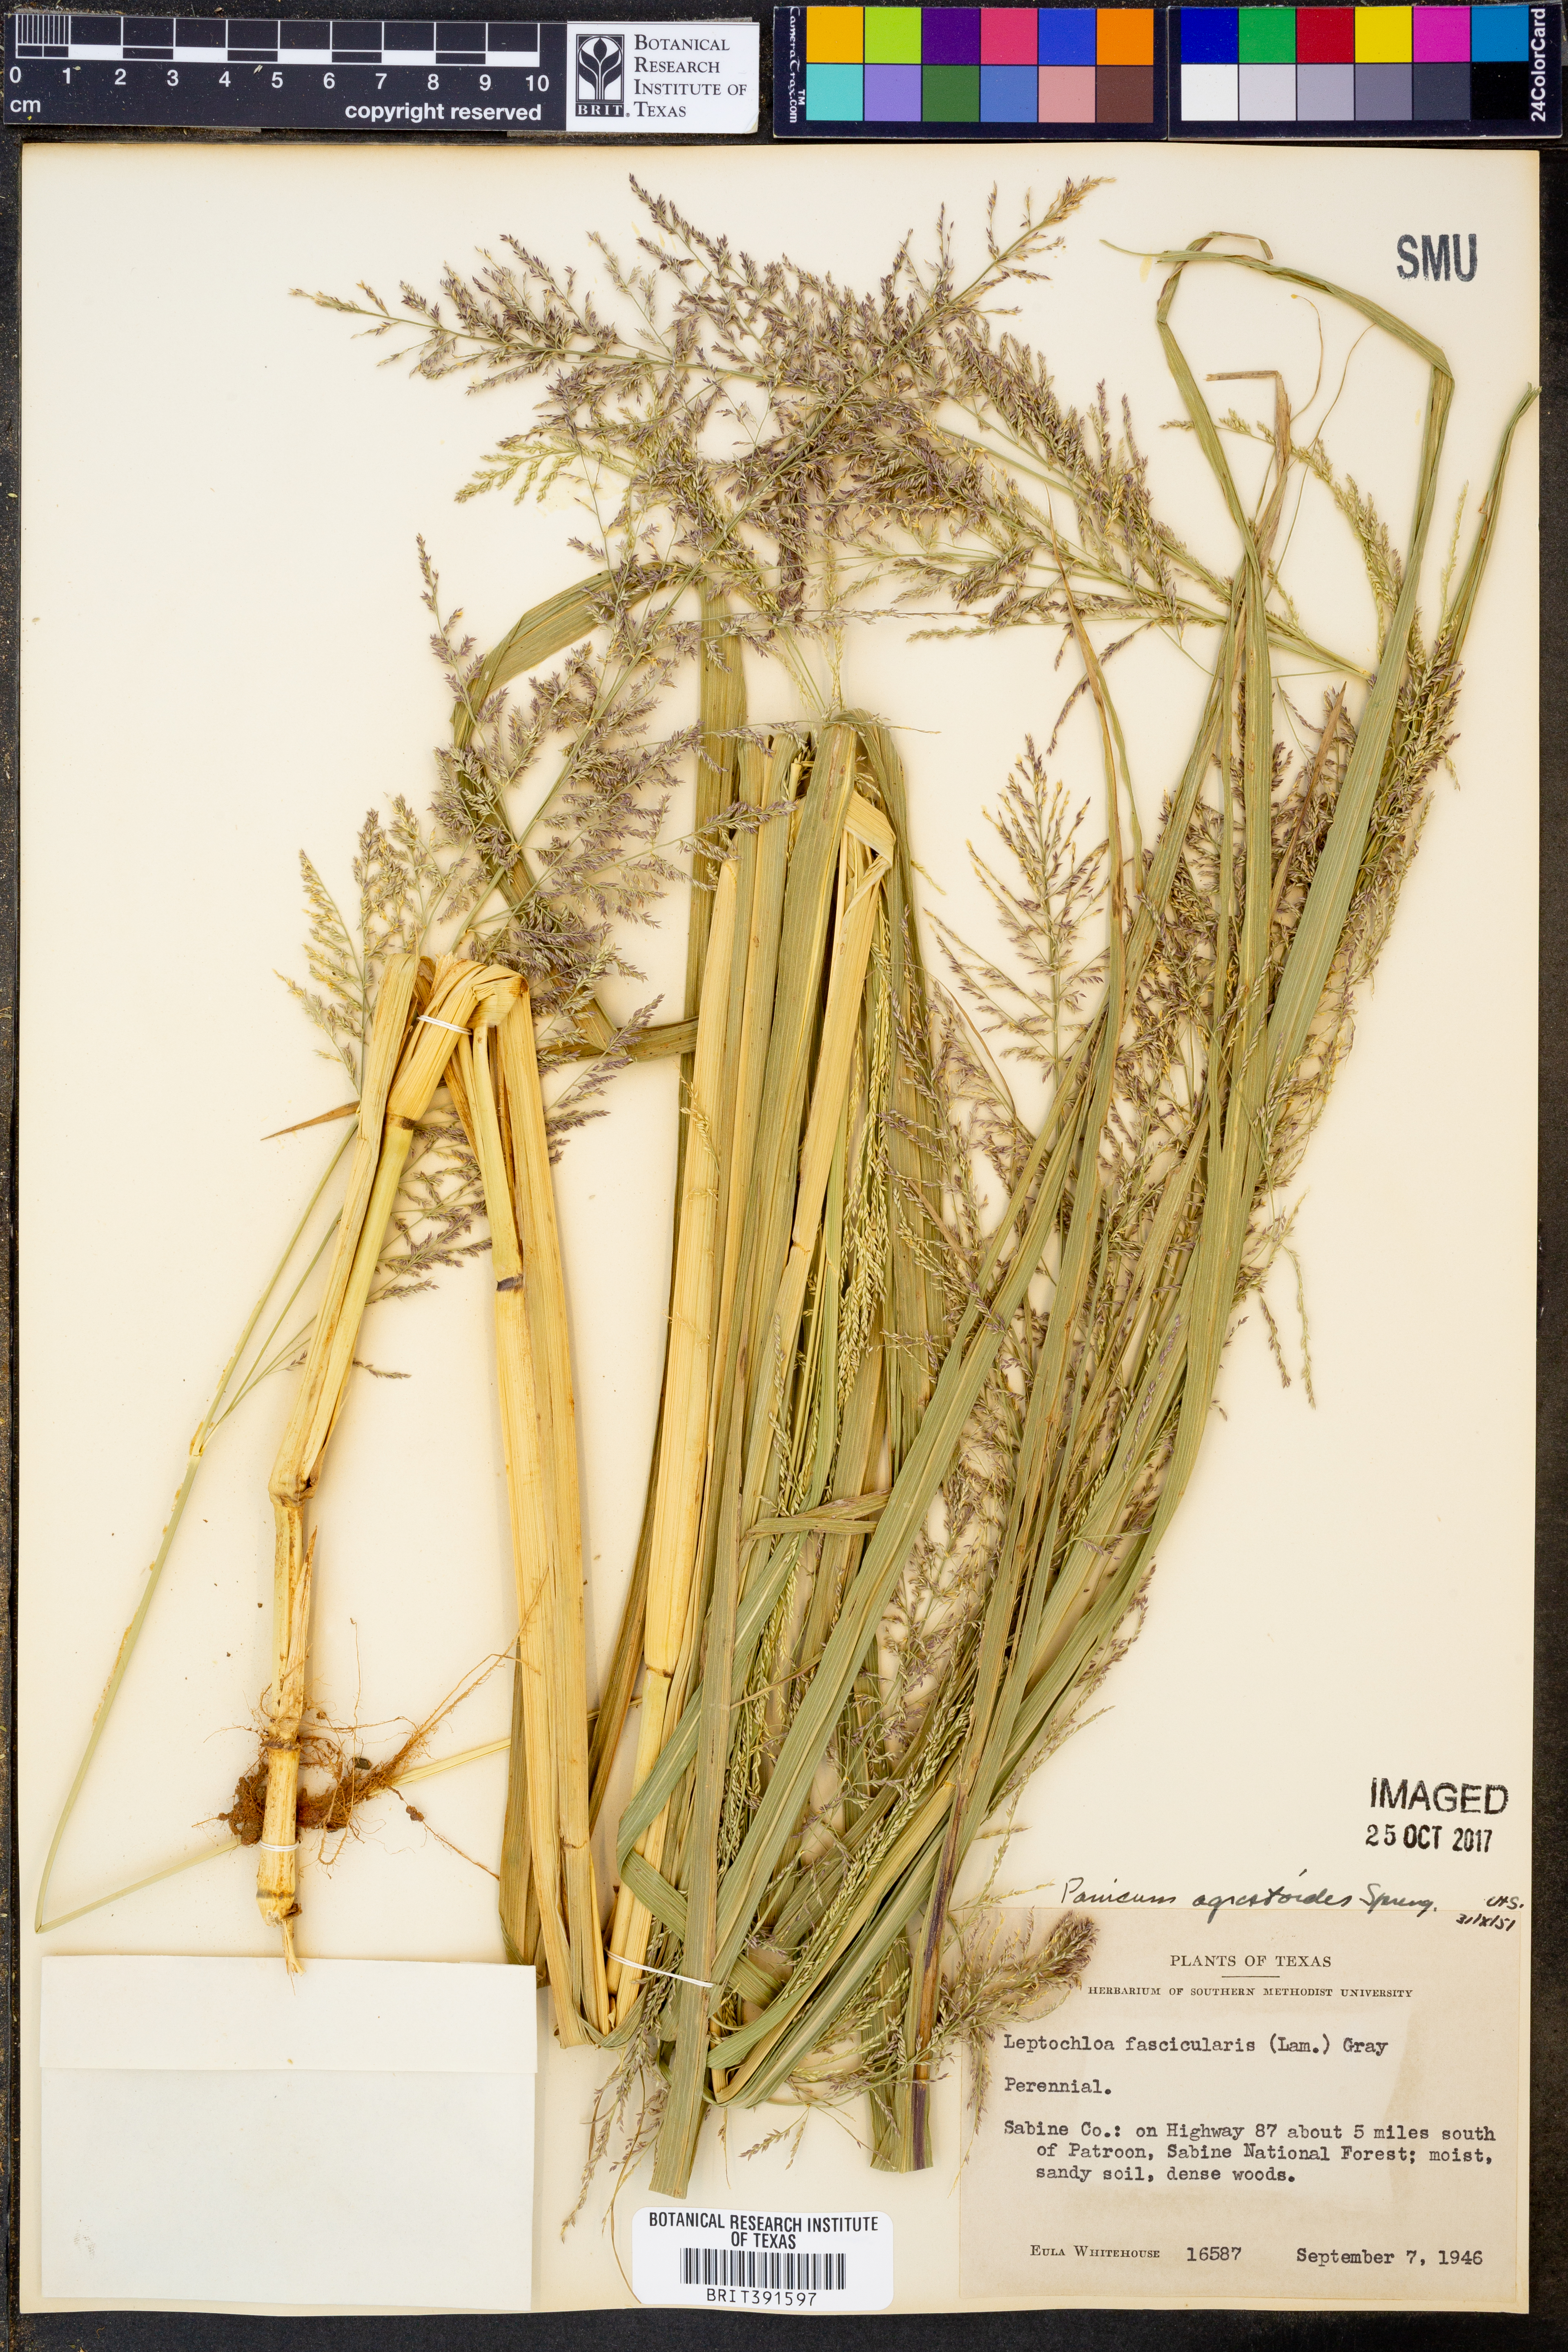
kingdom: Plantae
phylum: Tracheophyta
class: Liliopsida
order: Poales
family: Poaceae
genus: Steinchisma
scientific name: Steinchisma laxum
